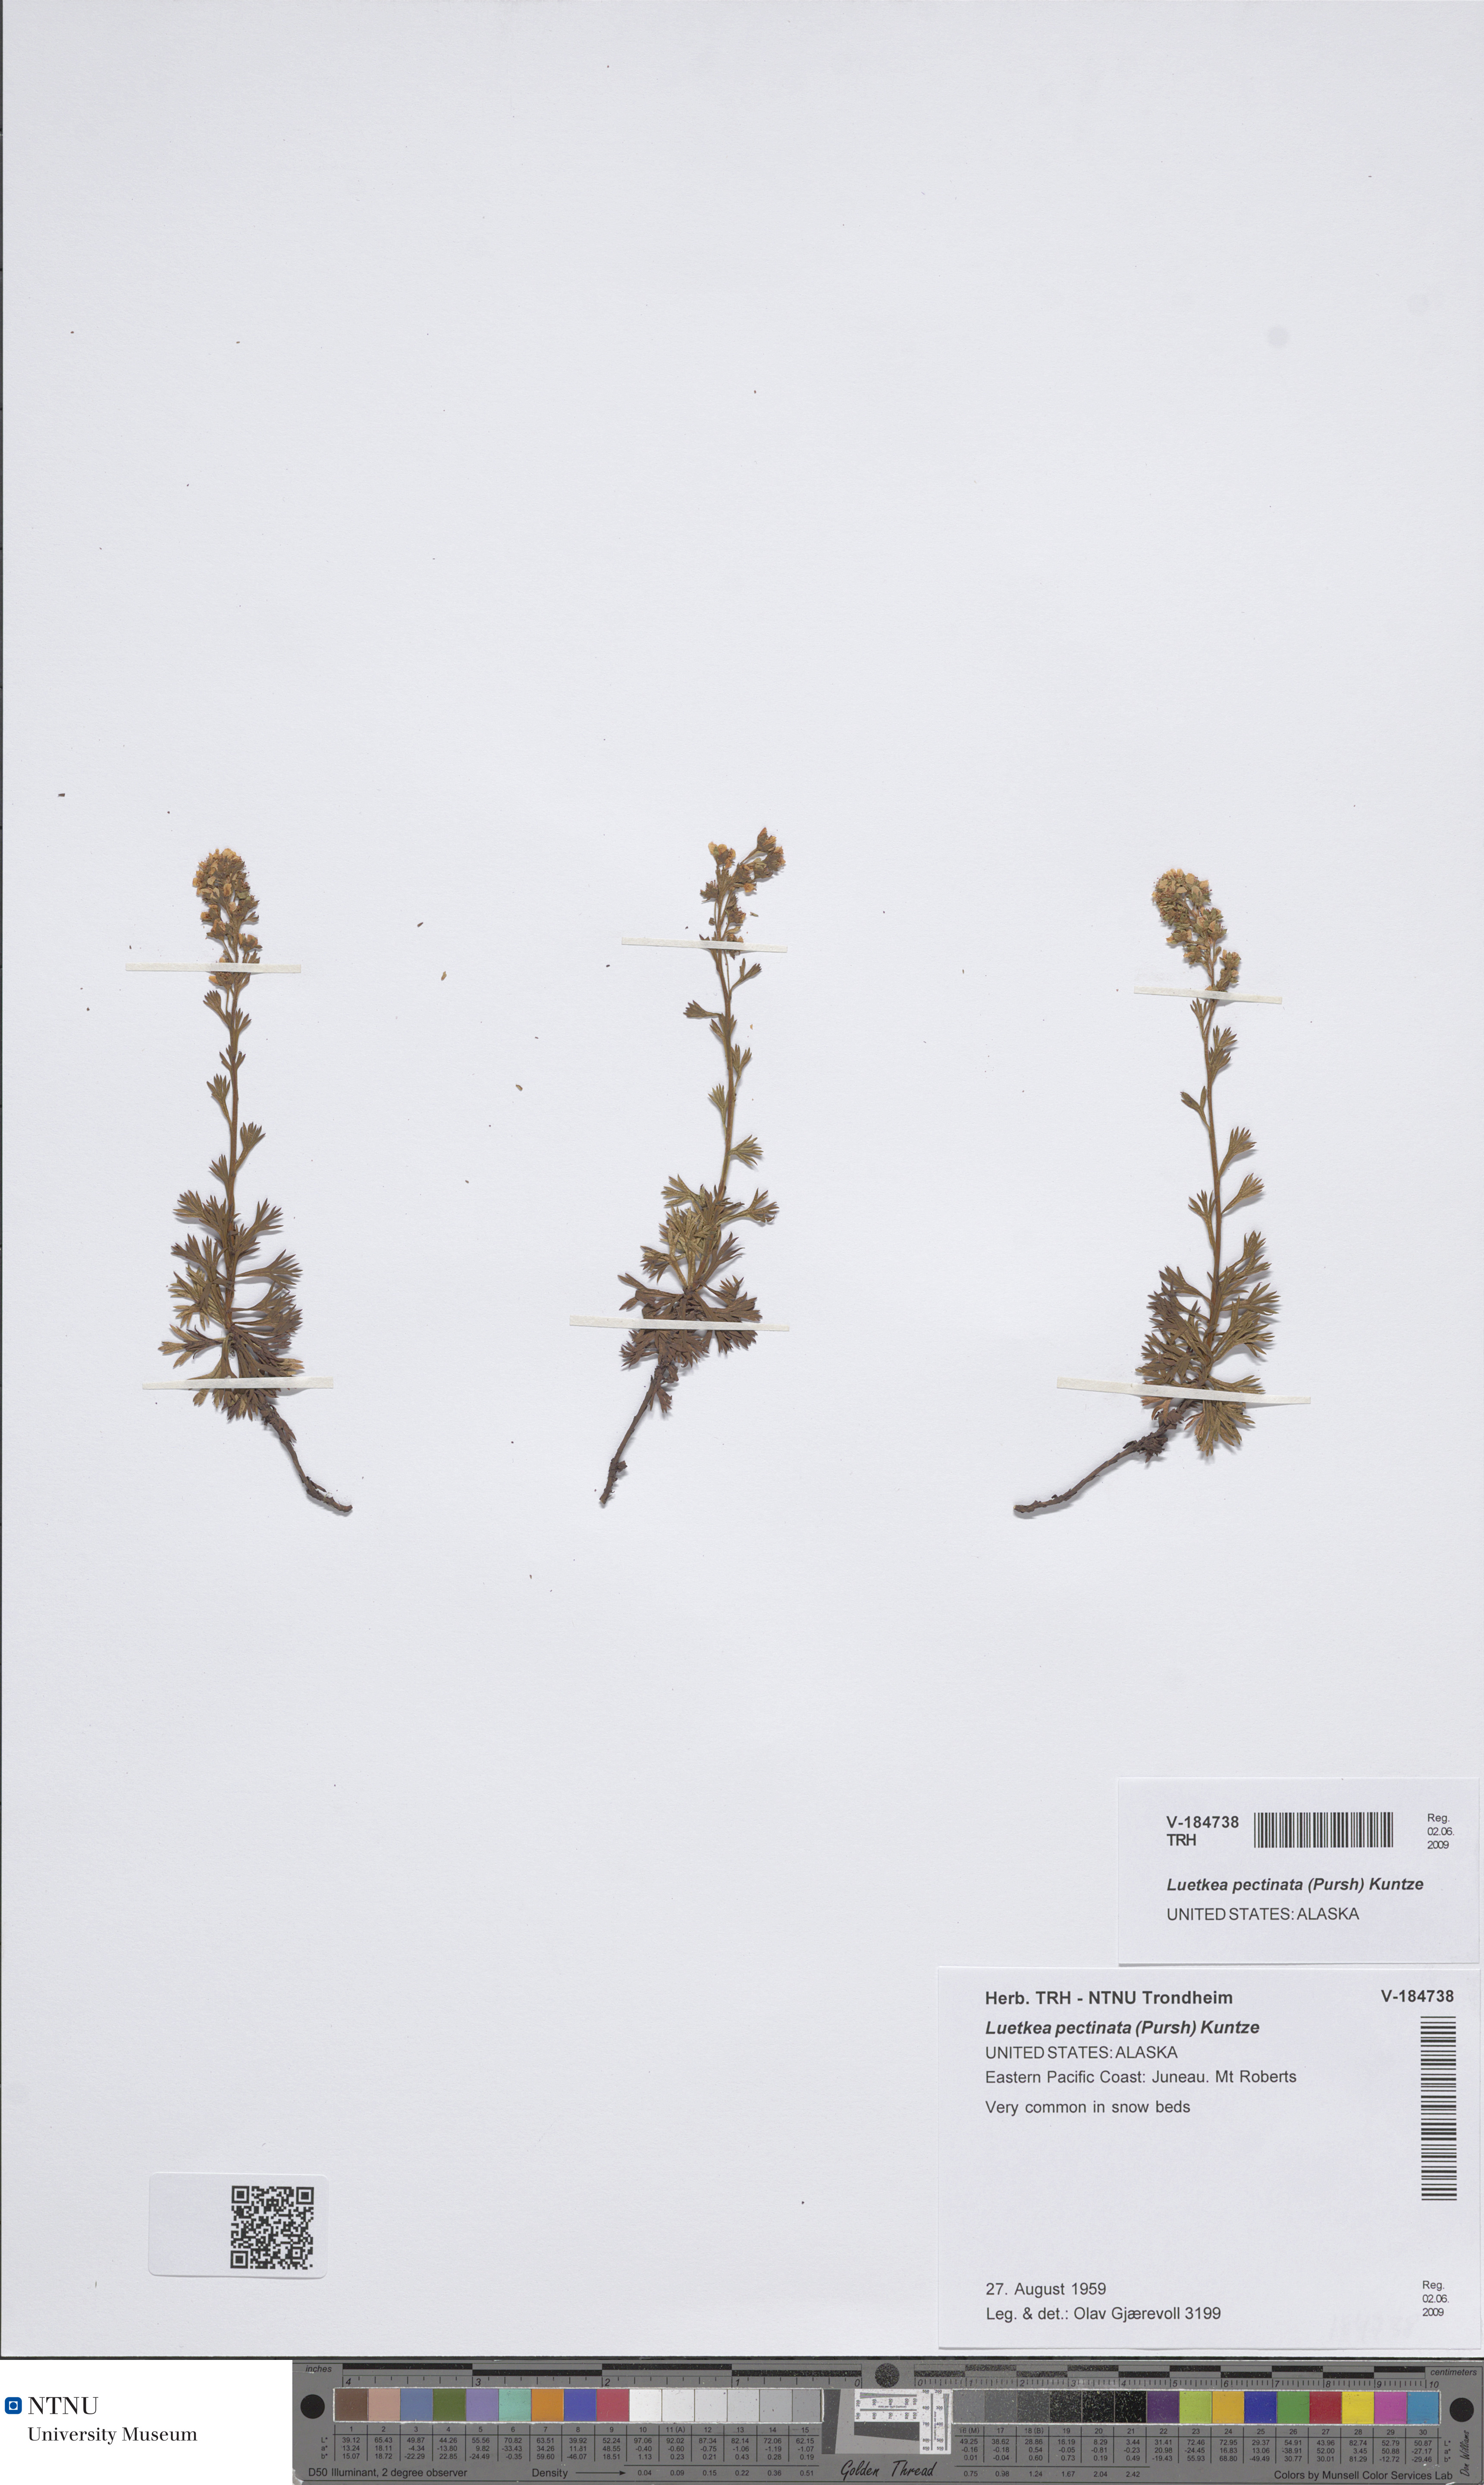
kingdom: Plantae
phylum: Tracheophyta
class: Magnoliopsida
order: Rosales
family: Rosaceae
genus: Luetkea
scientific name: Luetkea pectinata
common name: Partridgefoot
